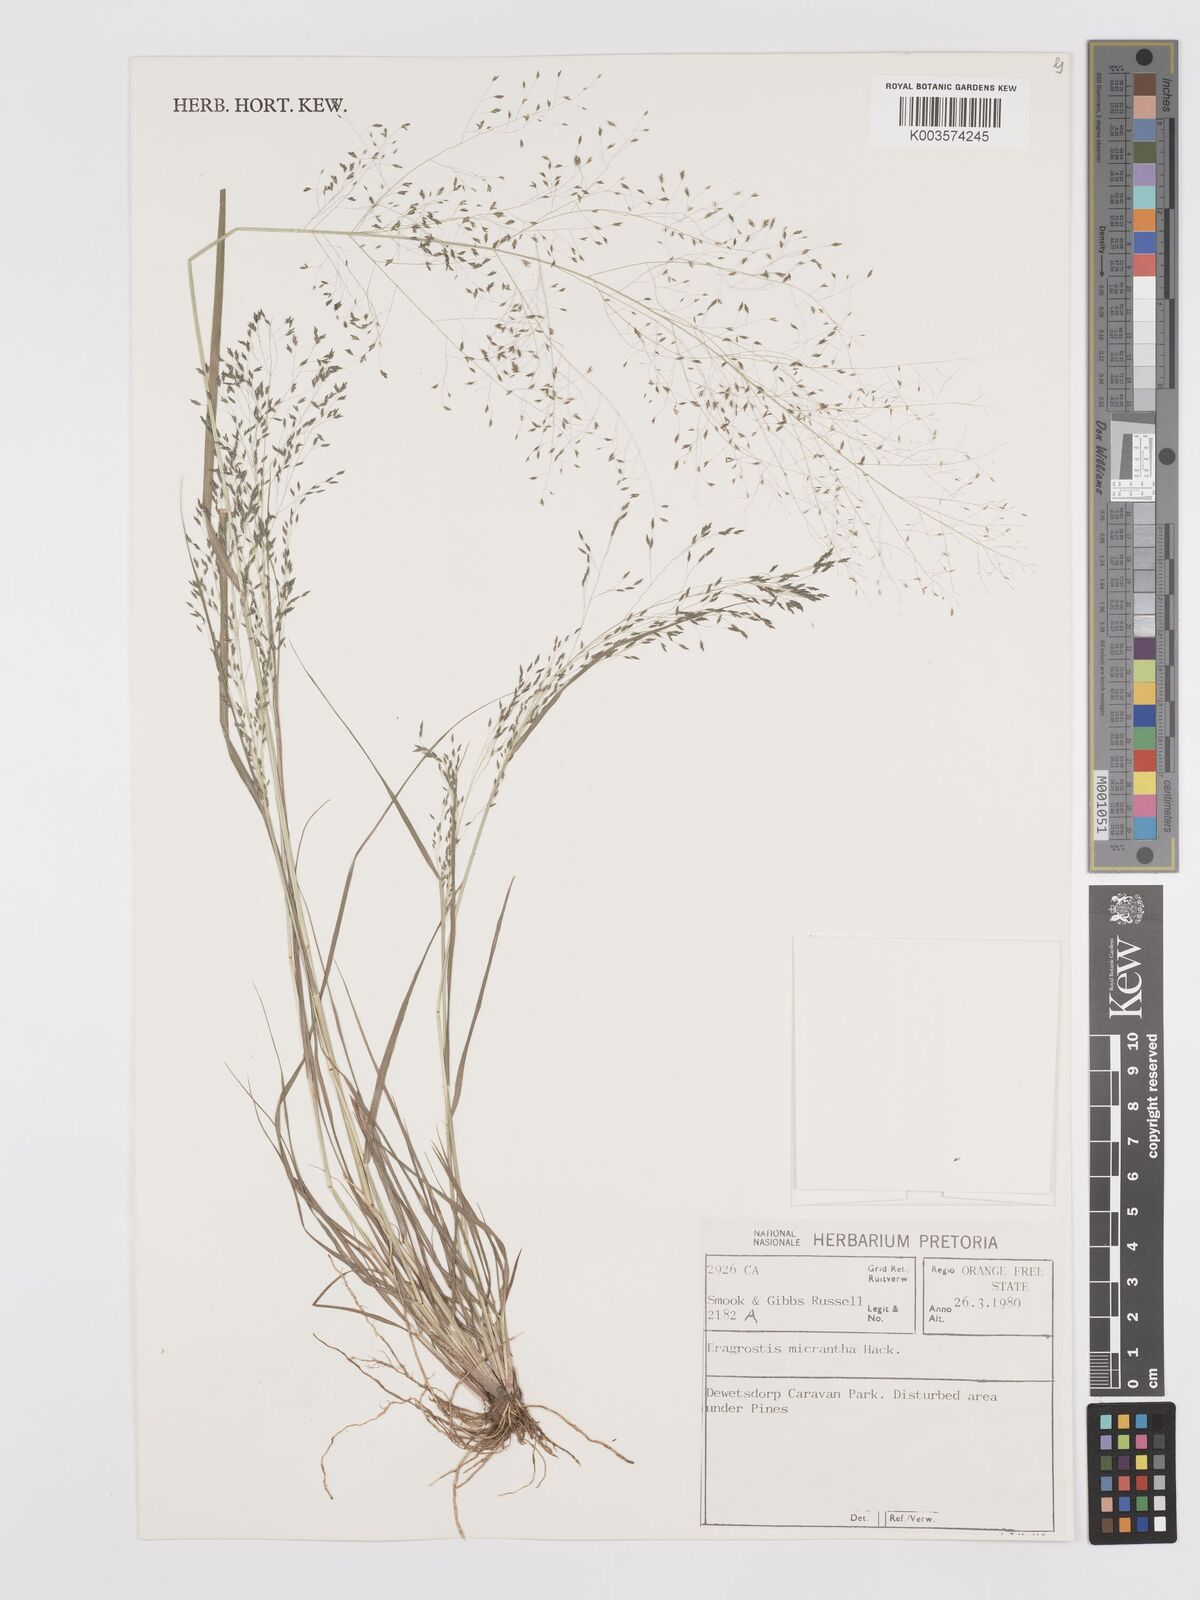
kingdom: Plantae
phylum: Tracheophyta
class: Liliopsida
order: Poales
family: Poaceae
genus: Eragrostis
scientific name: Eragrostis micrantha
